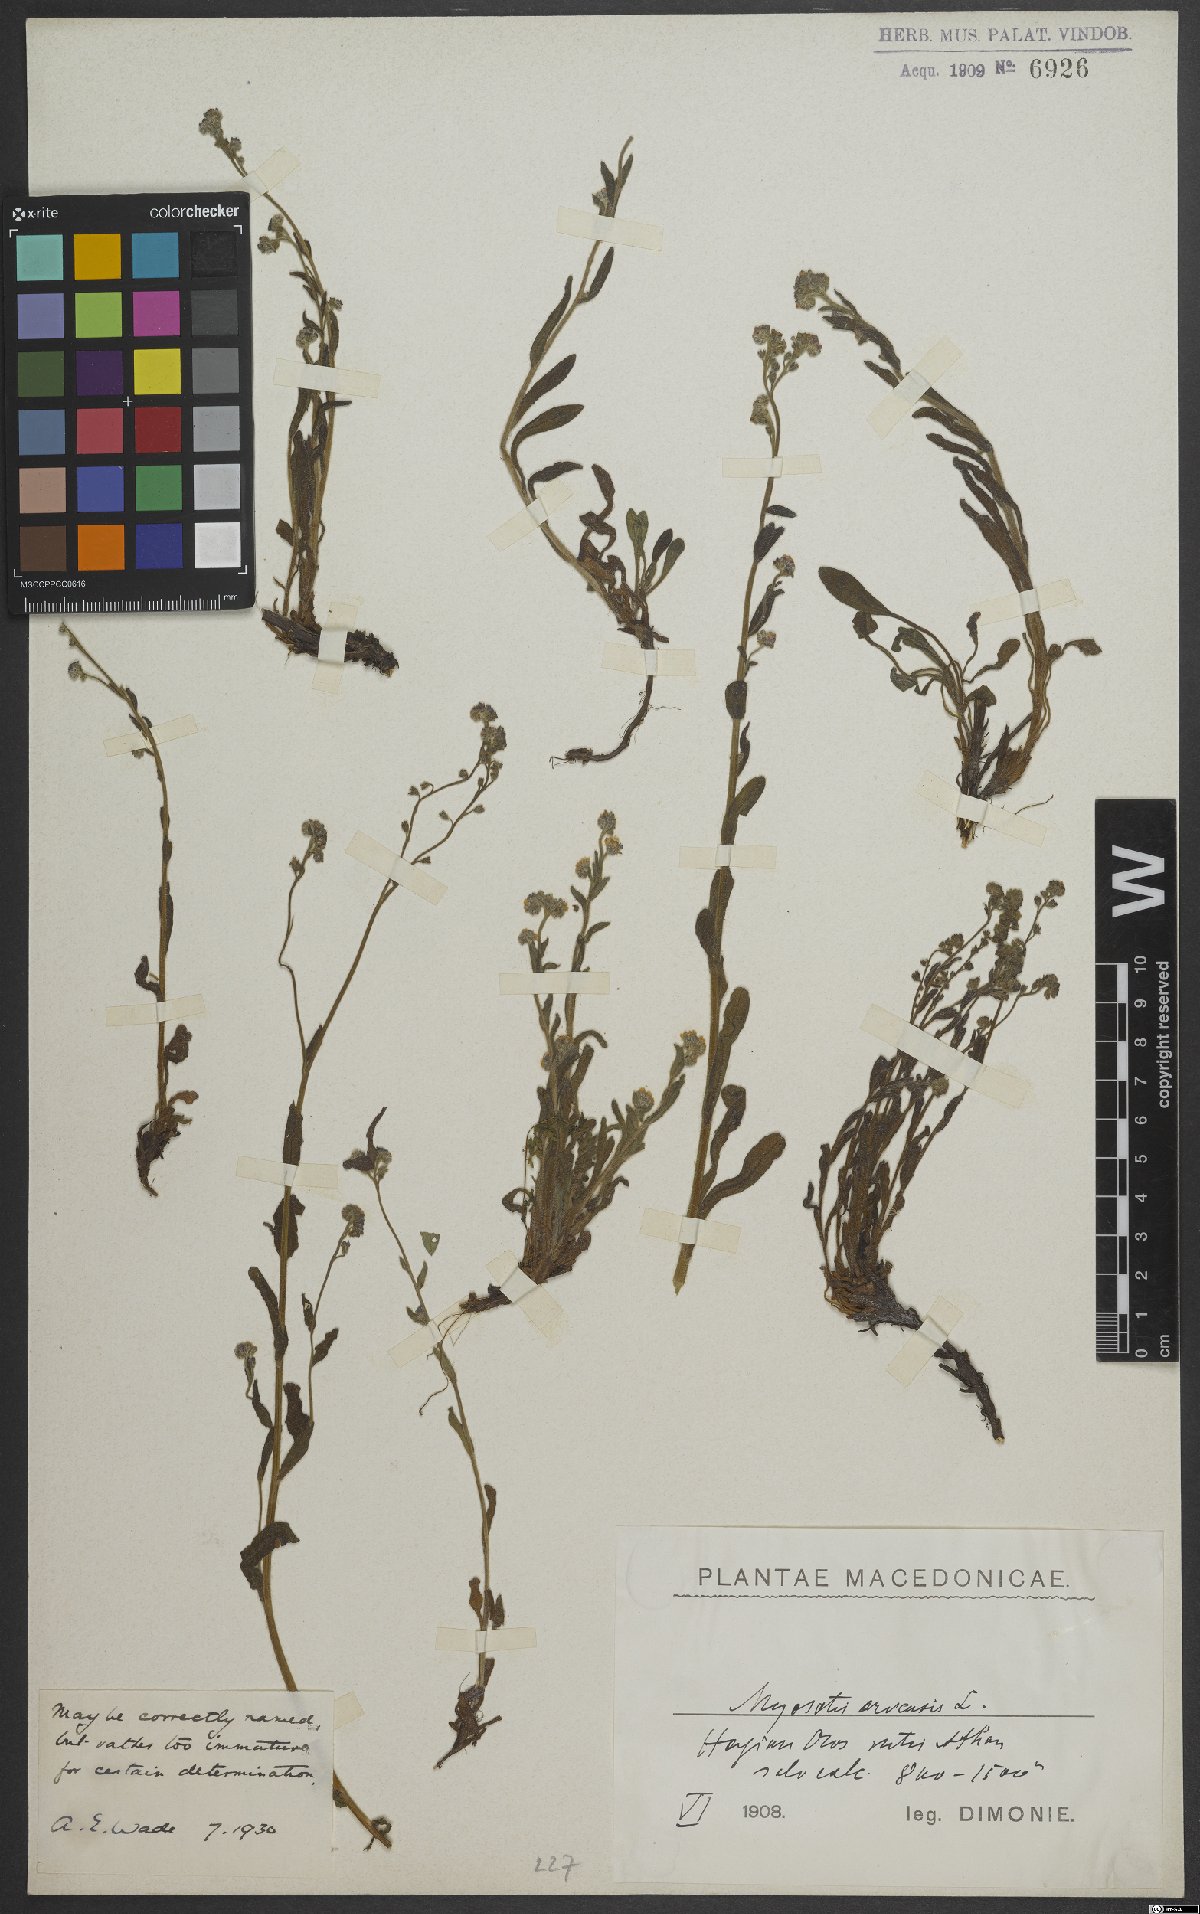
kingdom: Plantae
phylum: Tracheophyta
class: Magnoliopsida
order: Boraginales
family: Boraginaceae
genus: Myosotis
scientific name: Myosotis arvensis
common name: Field forget-me-not
